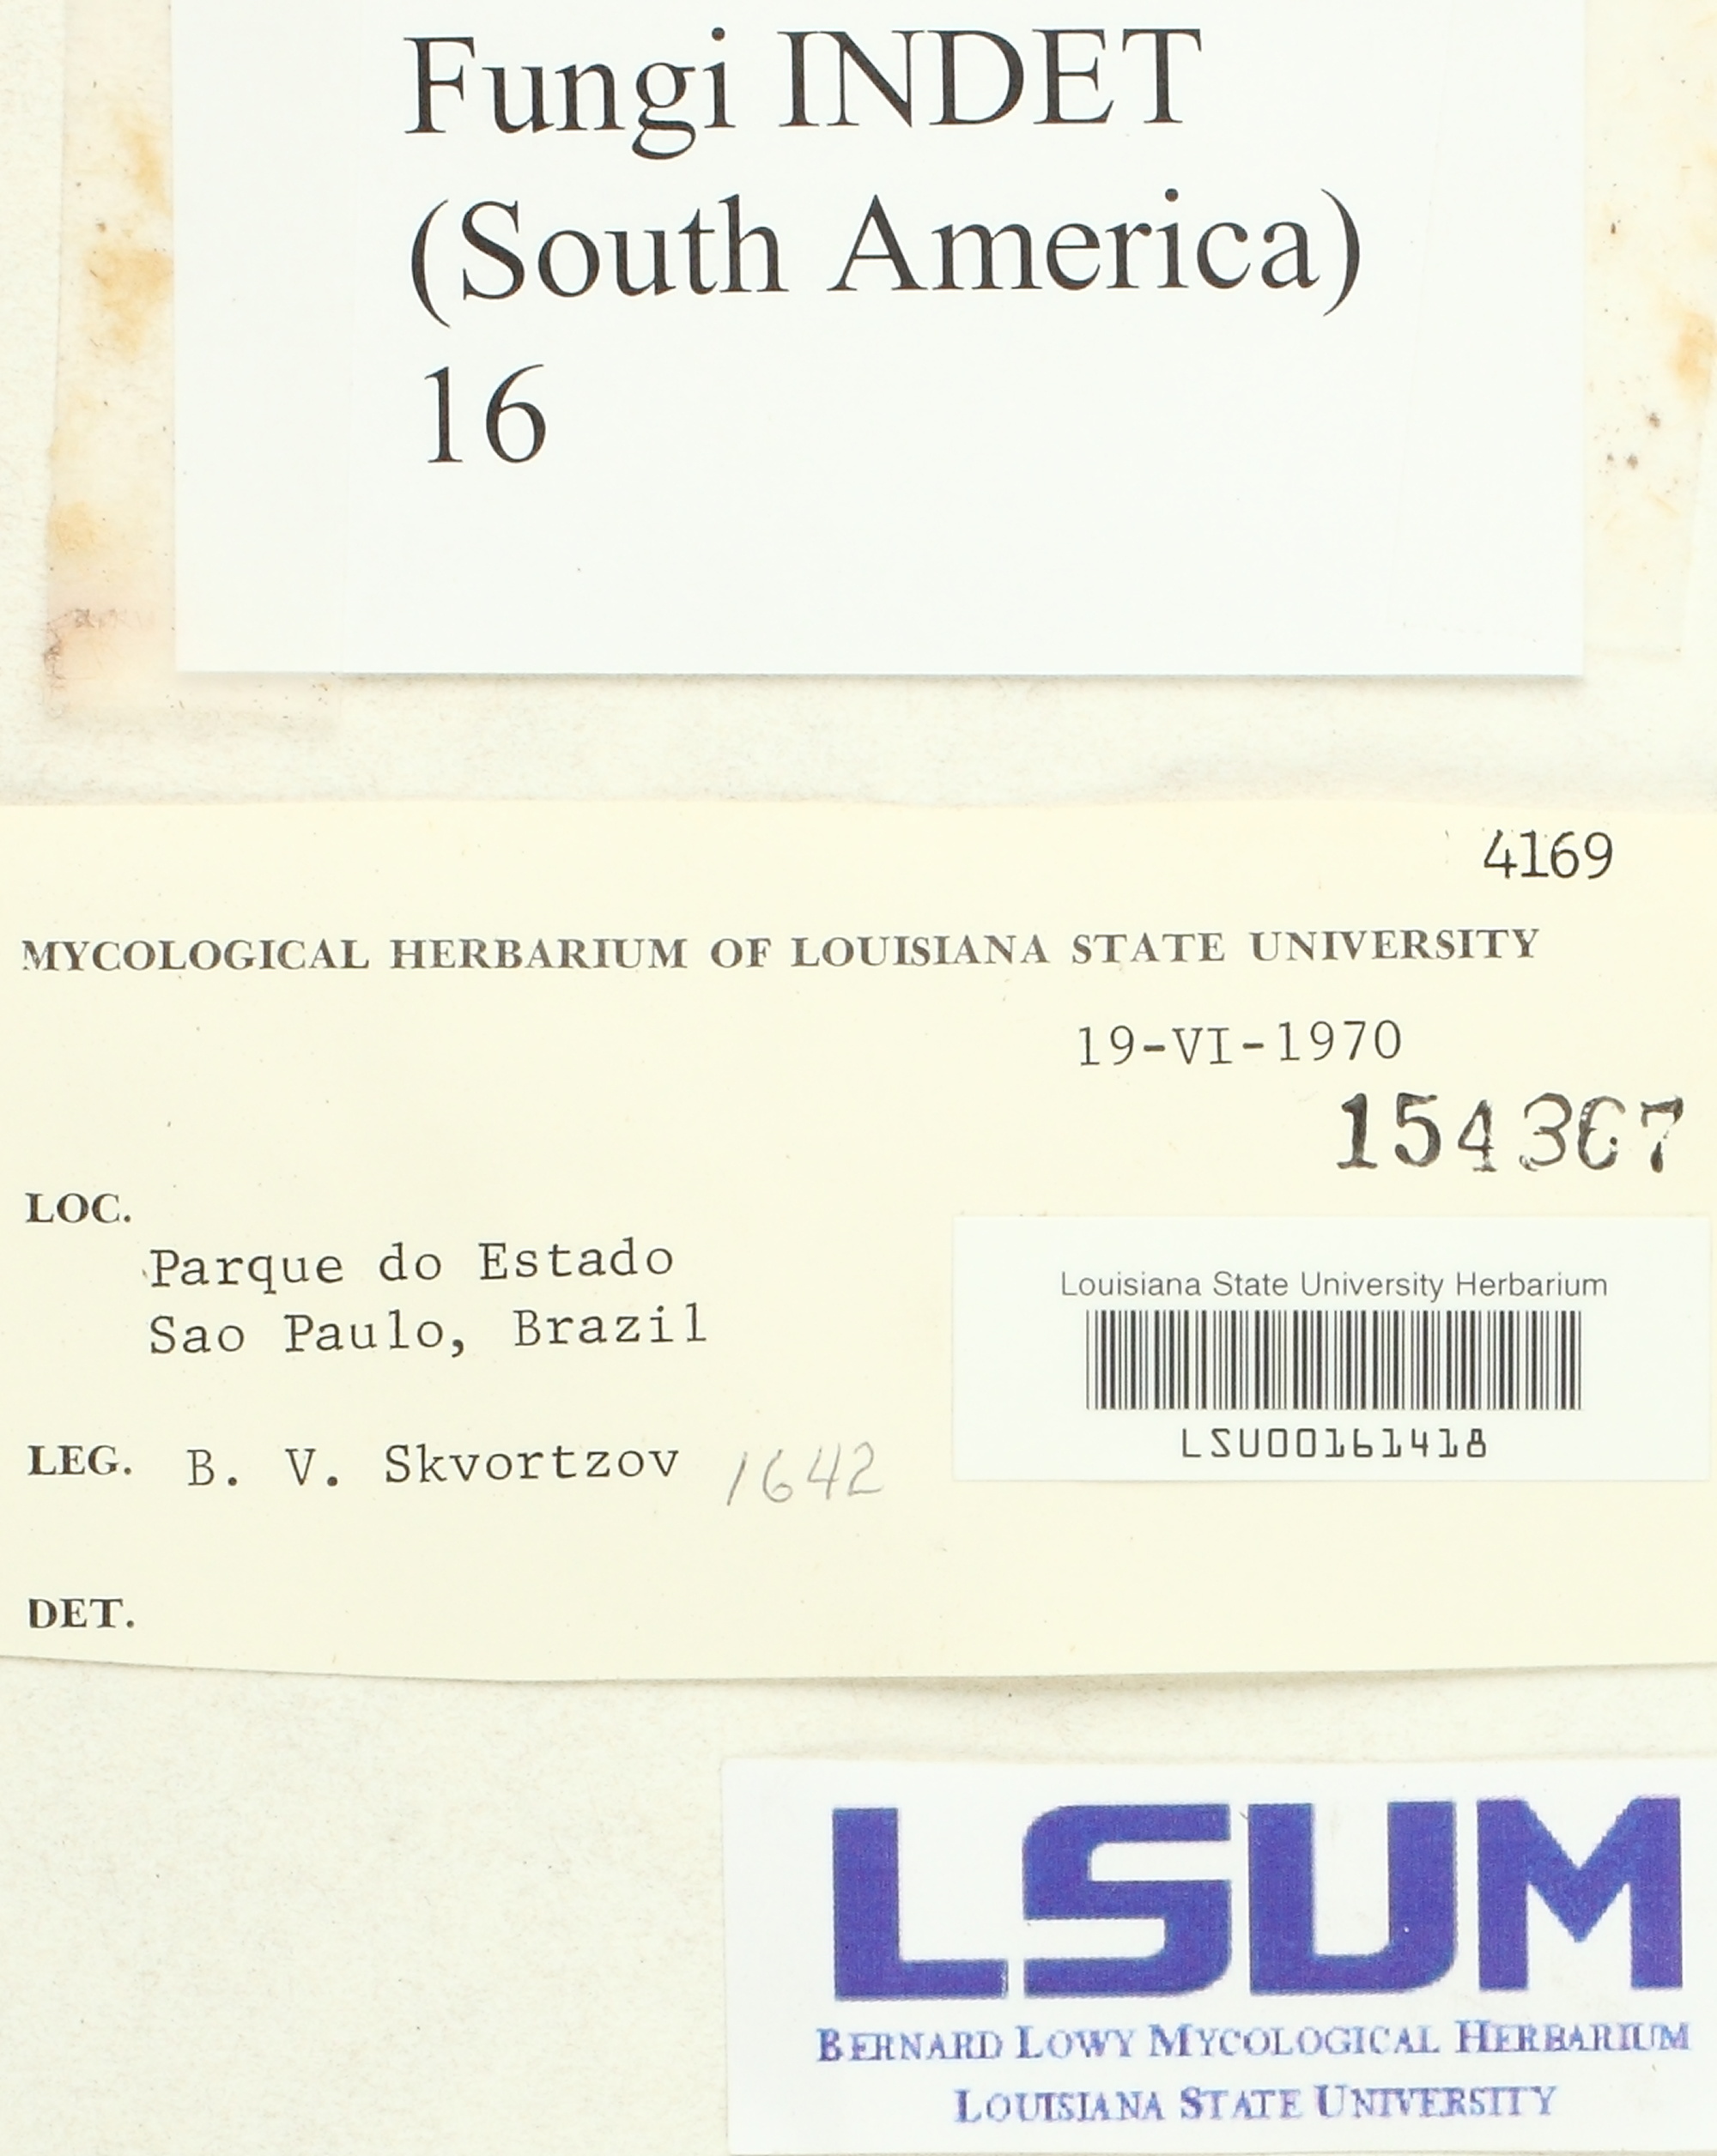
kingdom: Fungi
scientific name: Fungi
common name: Fungi
